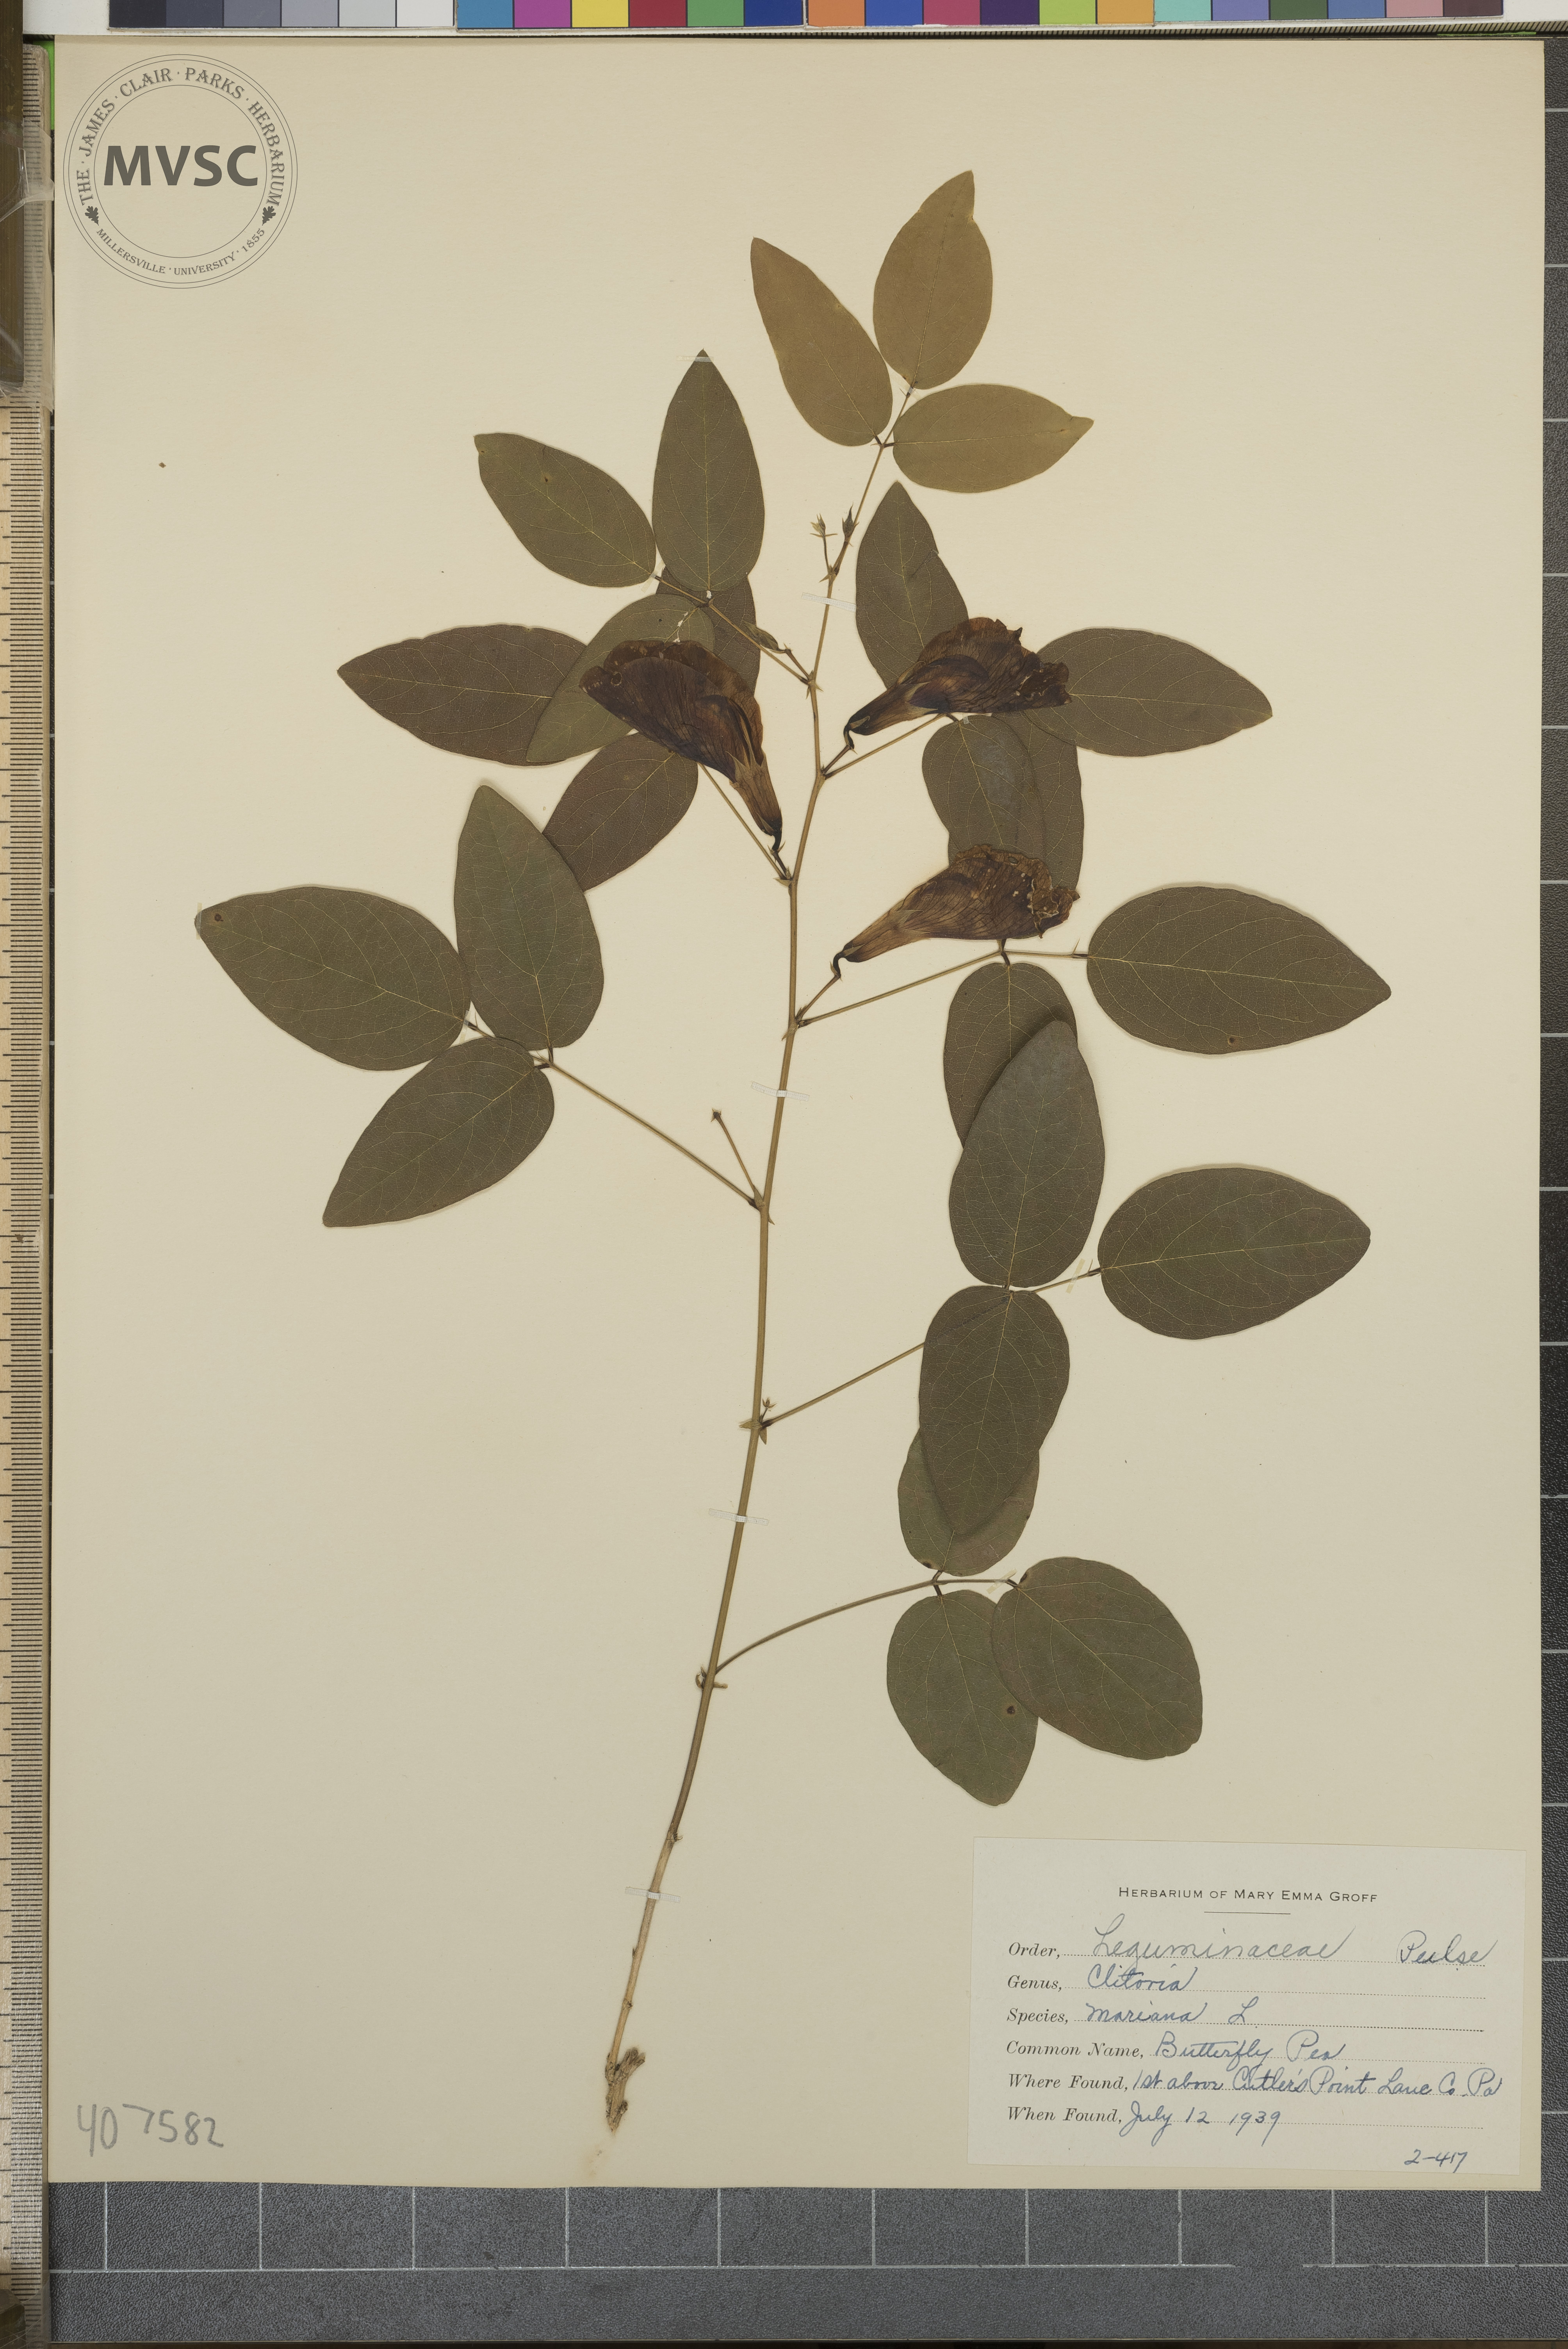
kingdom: Plantae
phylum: Tracheophyta
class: Magnoliopsida
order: Fabales
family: Fabaceae
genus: Clitoria
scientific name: Clitoria mariana
